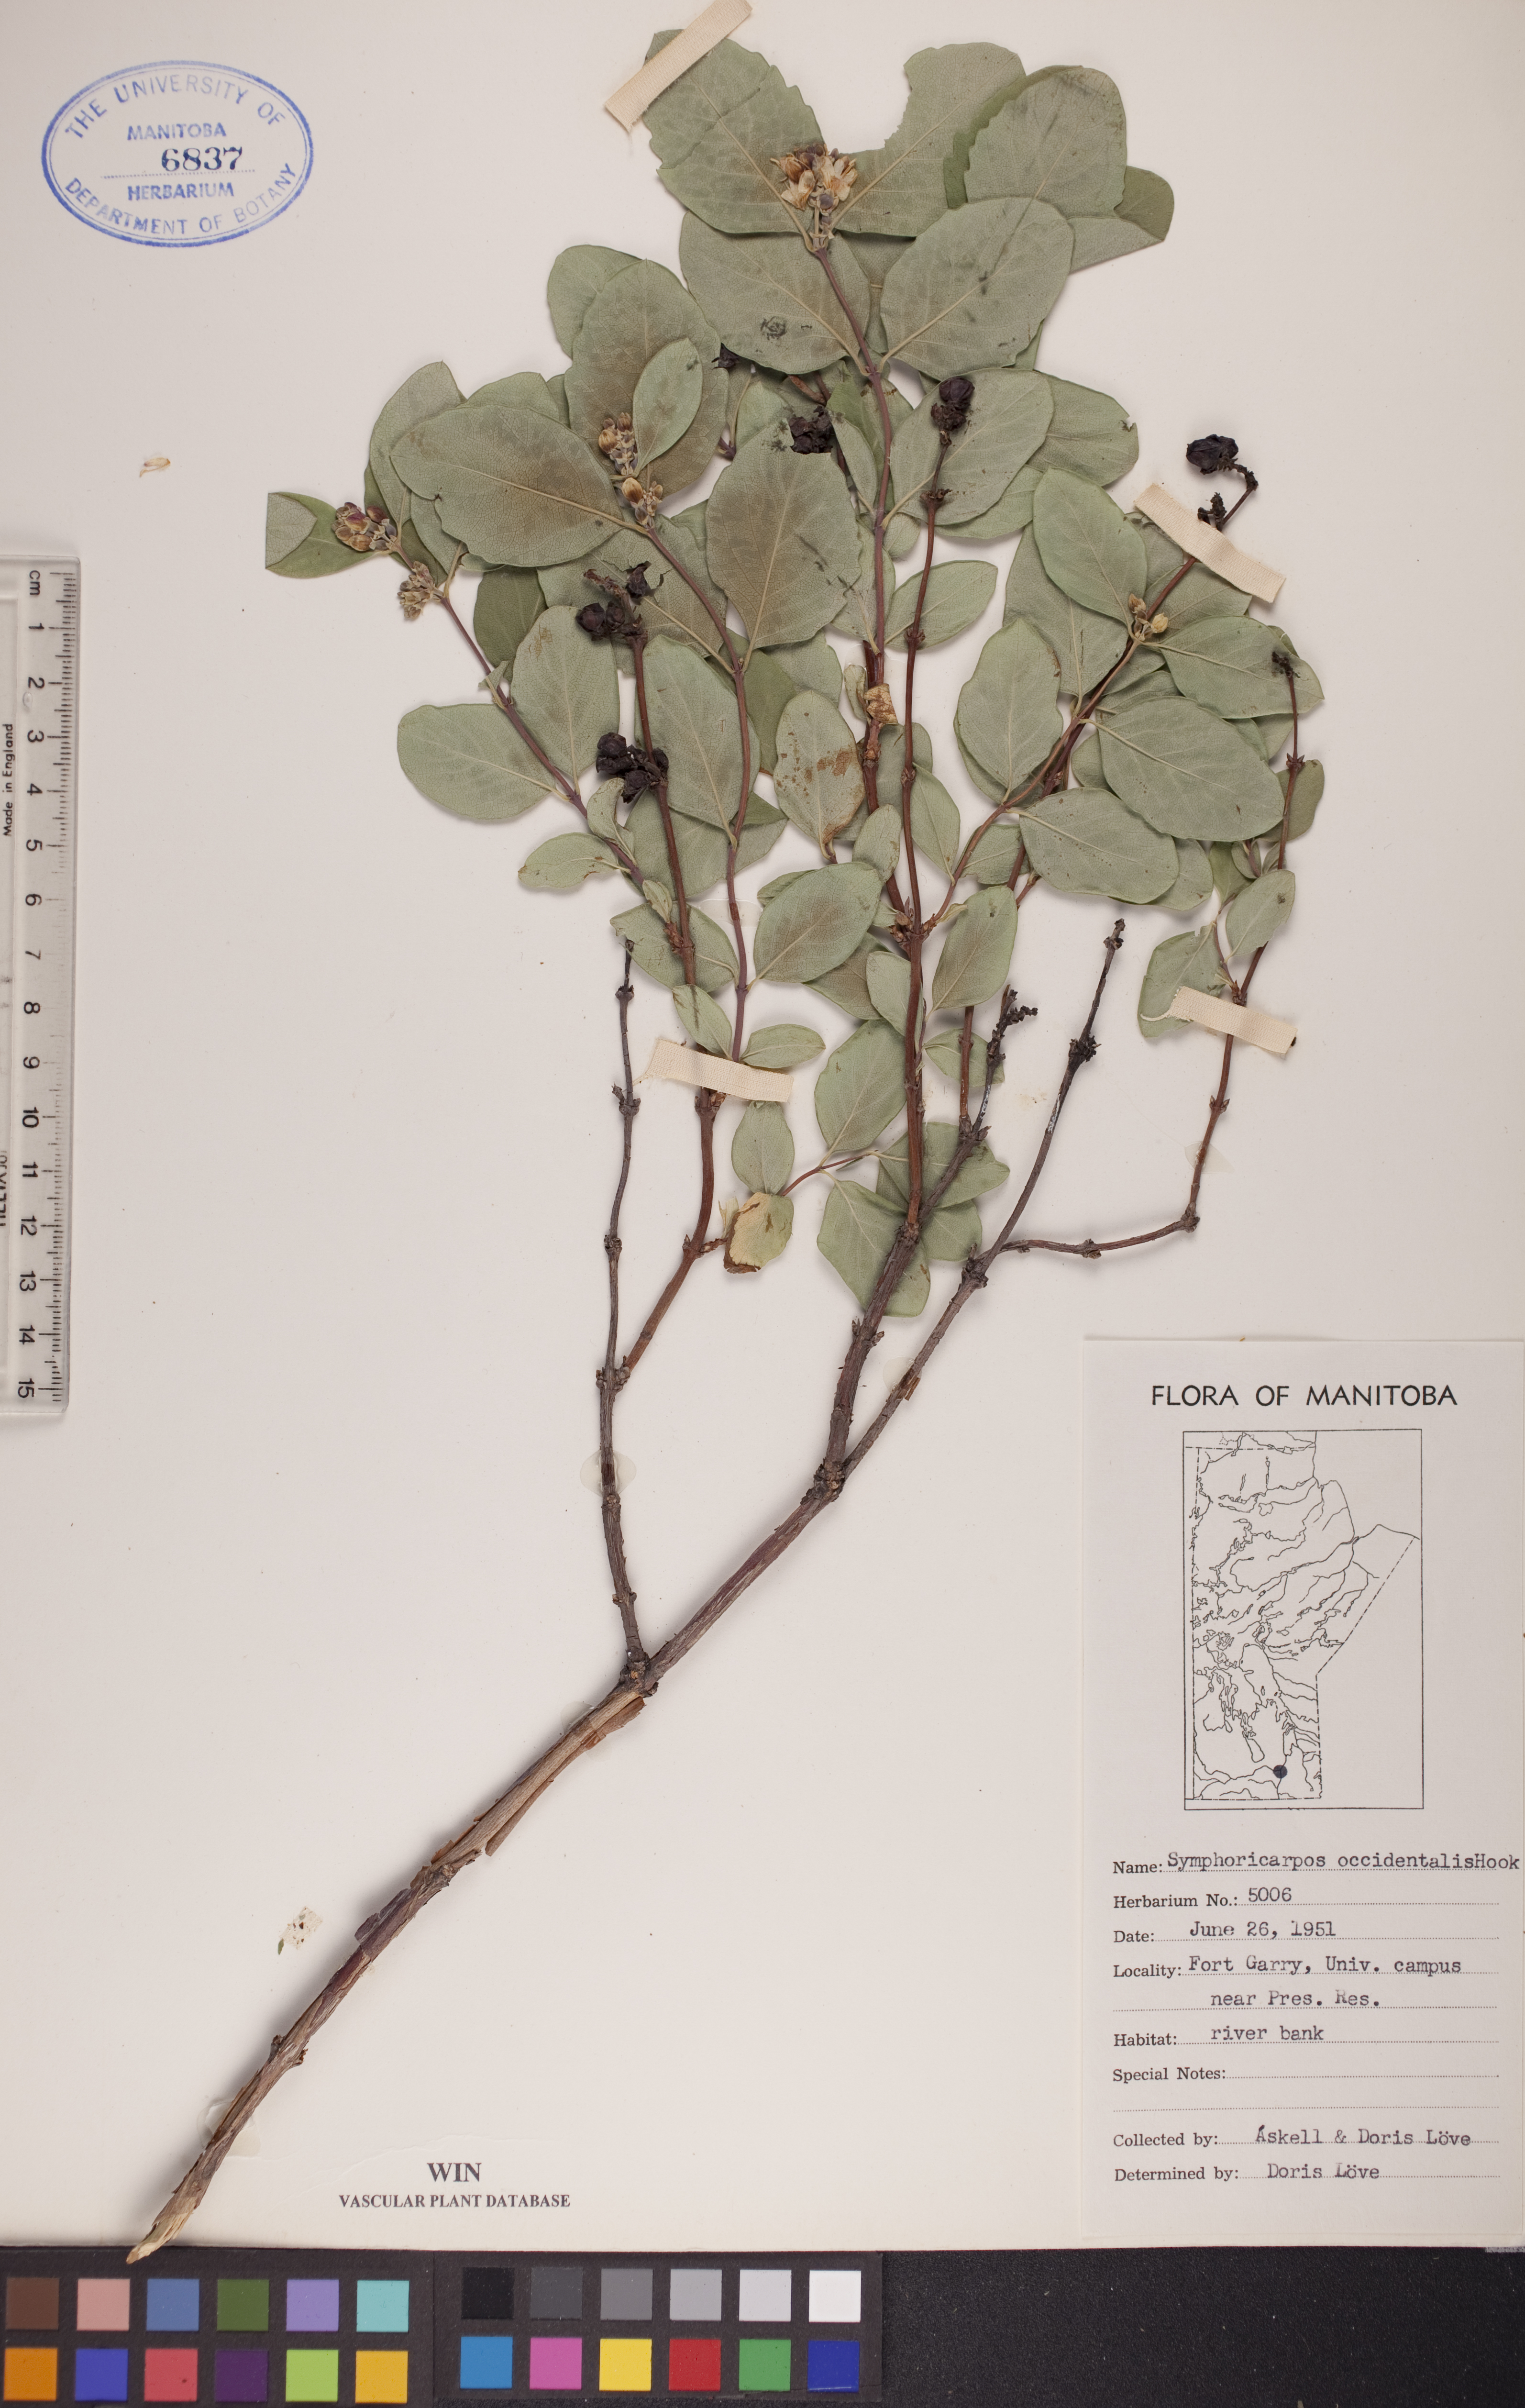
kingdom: Plantae
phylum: Tracheophyta
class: Magnoliopsida
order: Dipsacales
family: Caprifoliaceae
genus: Symphoricarpos
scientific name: Symphoricarpos occidentalis
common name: Wolfberry
